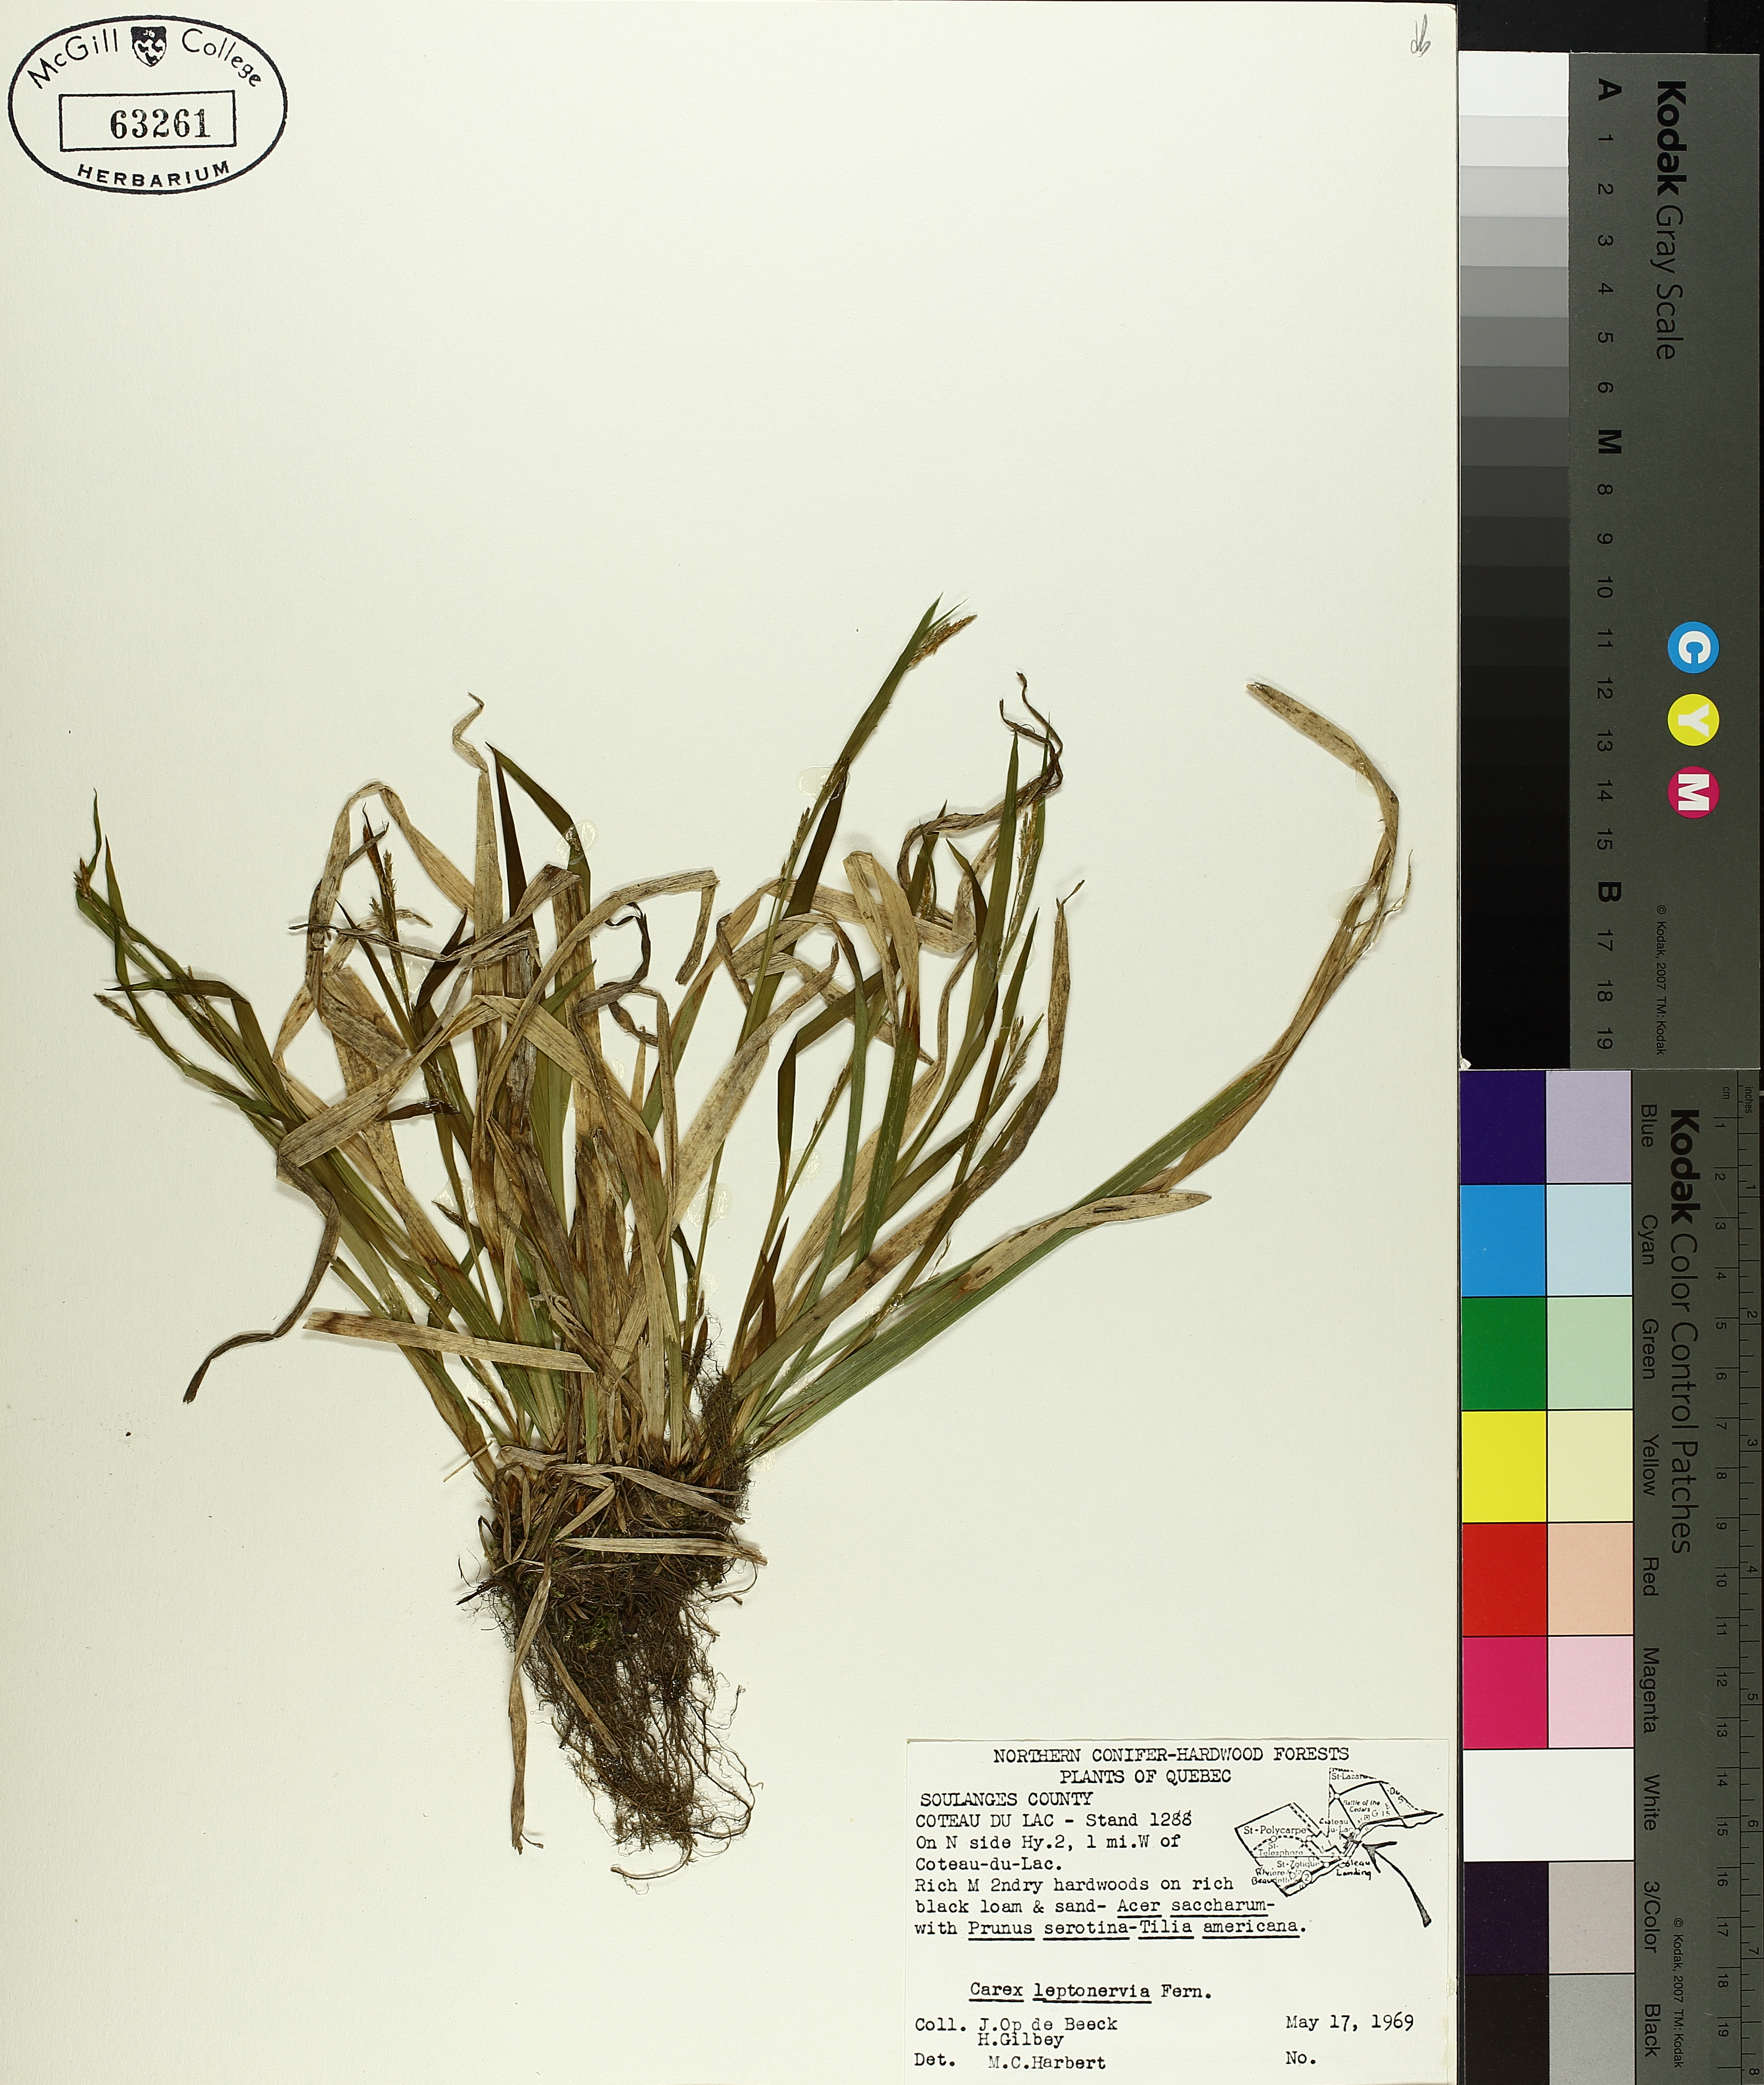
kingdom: Plantae
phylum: Tracheophyta
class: Liliopsida
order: Poales
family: Cyperaceae
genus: Carex
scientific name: Carex leptonervia
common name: Few-nerved wood sedge
